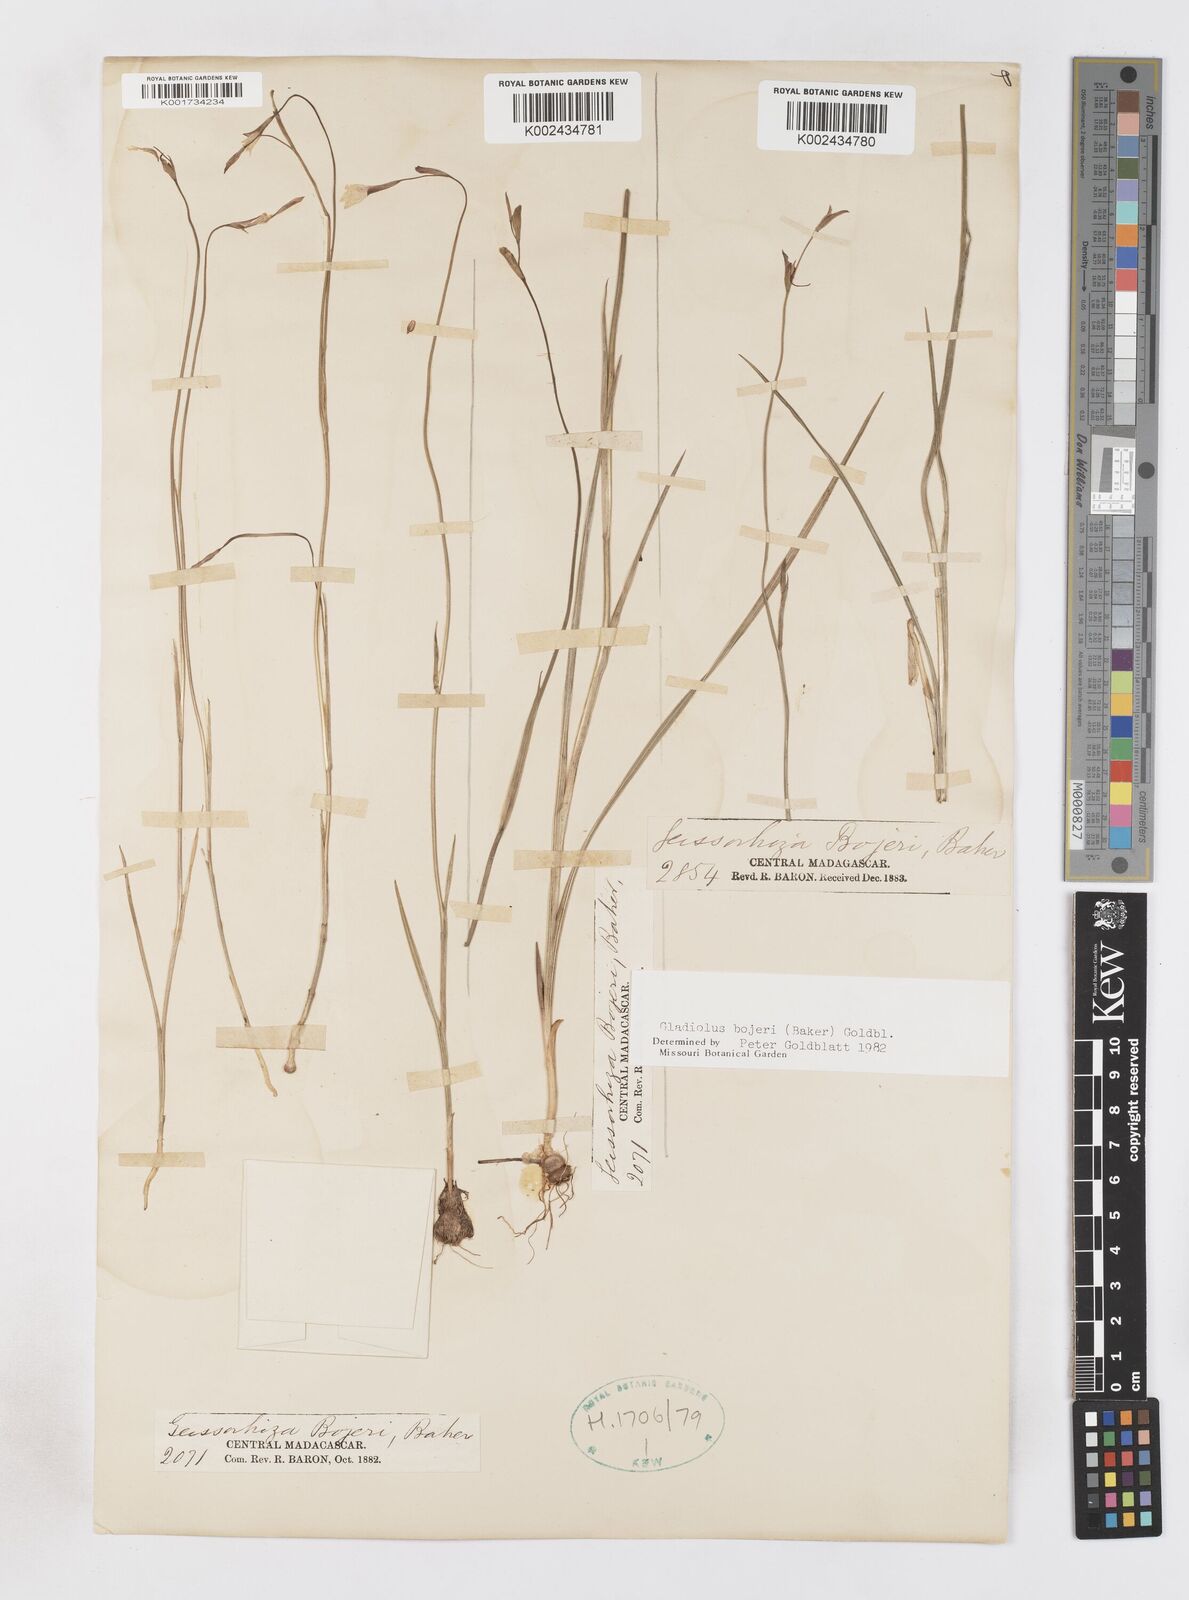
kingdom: Plantae
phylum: Tracheophyta
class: Liliopsida
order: Asparagales
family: Iridaceae
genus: Gladiolus
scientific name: Gladiolus bojeri
